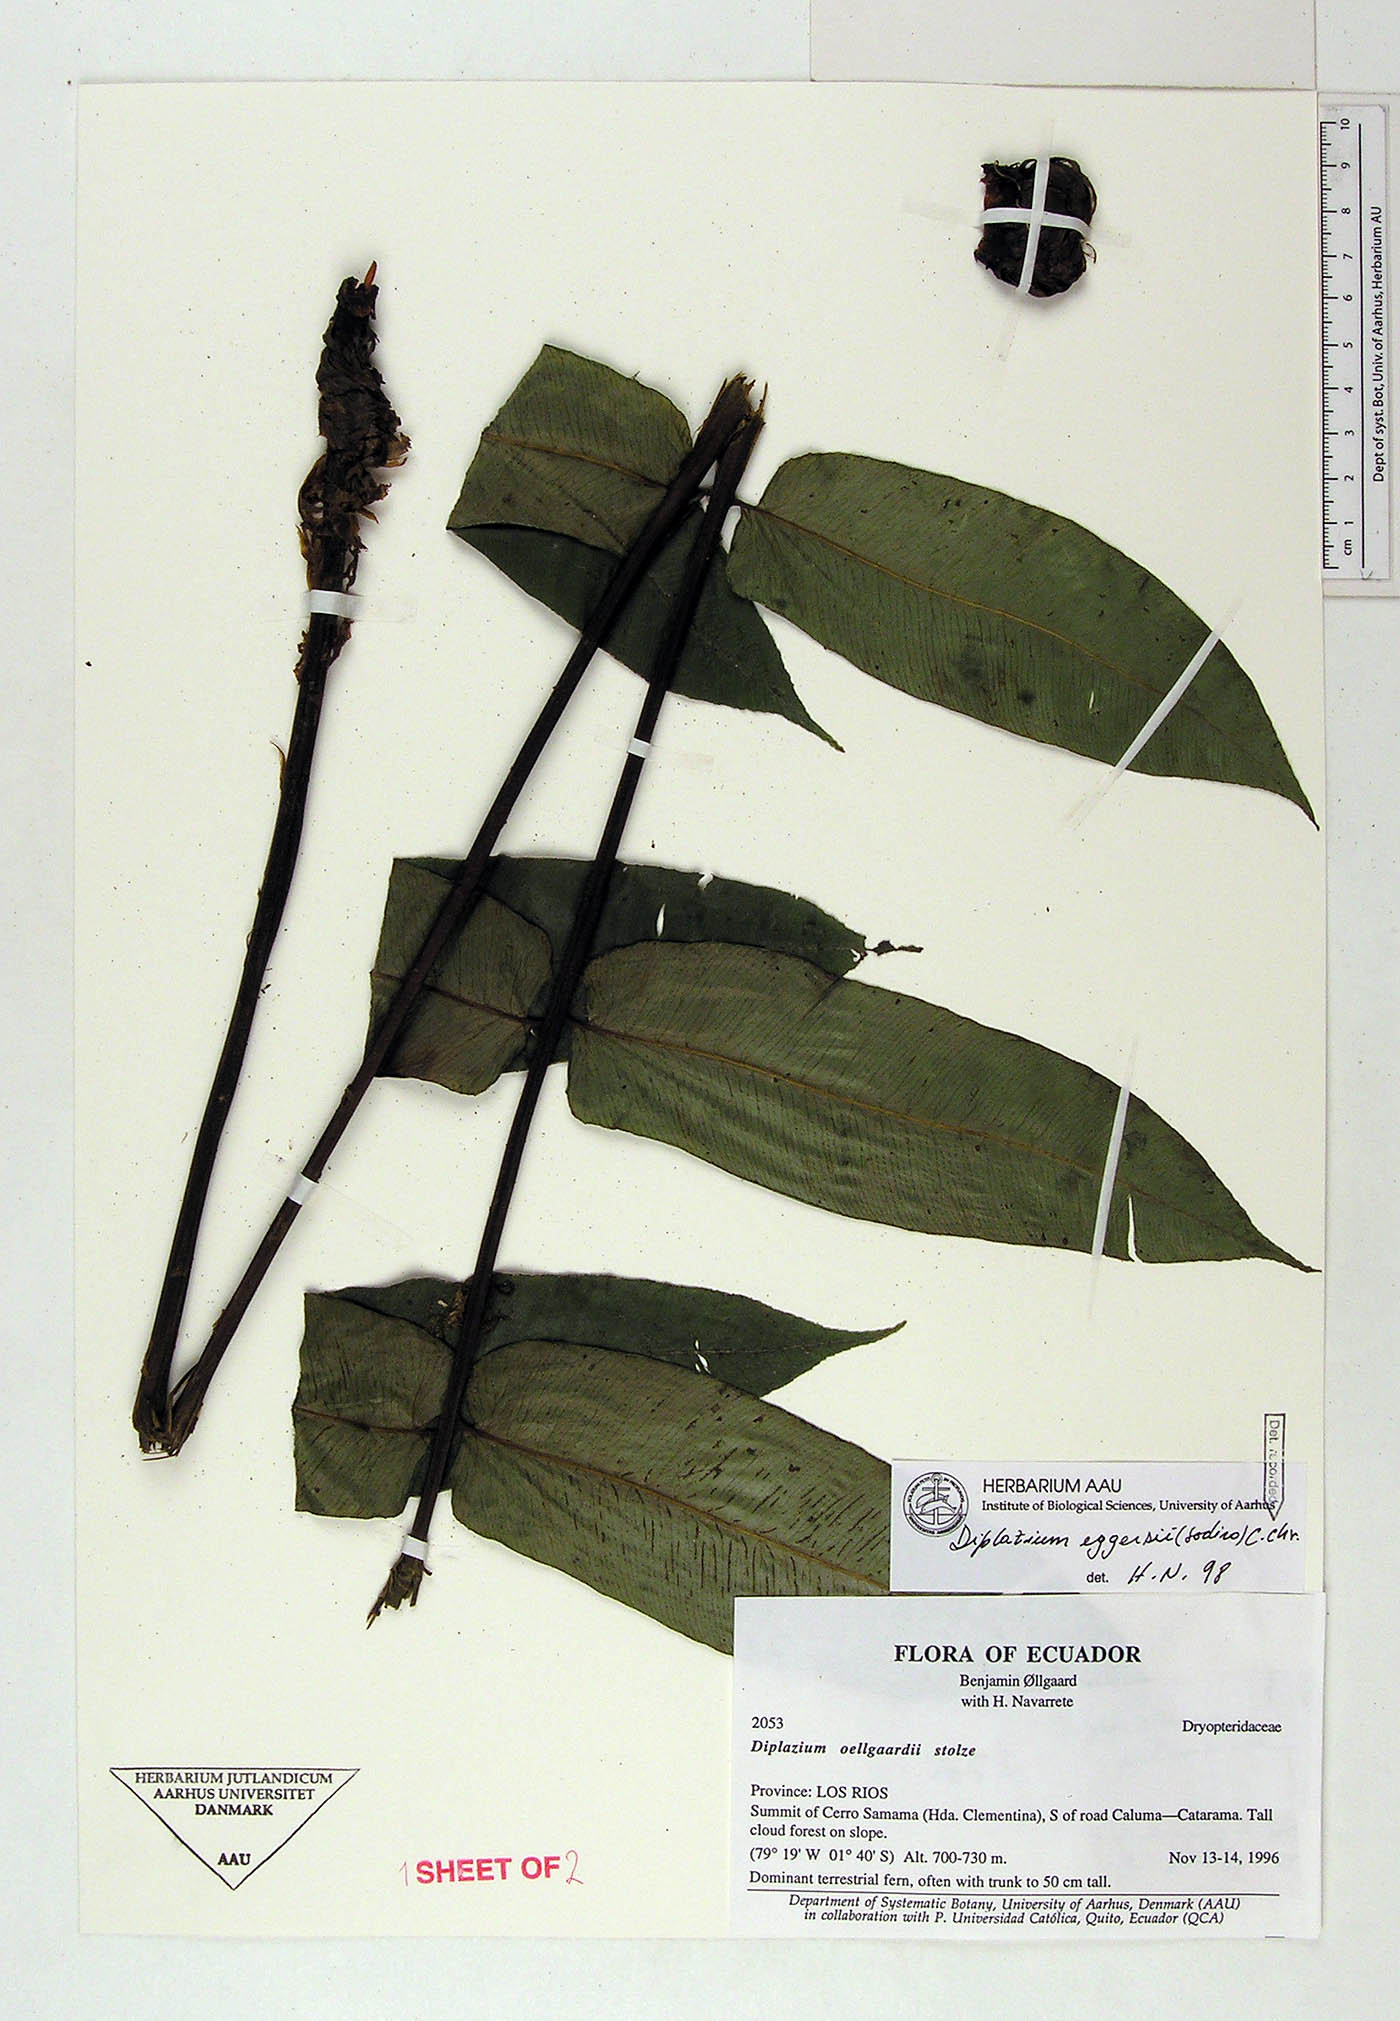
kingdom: Plantae
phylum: Tracheophyta
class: Polypodiopsida
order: Polypodiales
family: Athyriaceae
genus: Diplazium
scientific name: Diplazium oellgaardii
